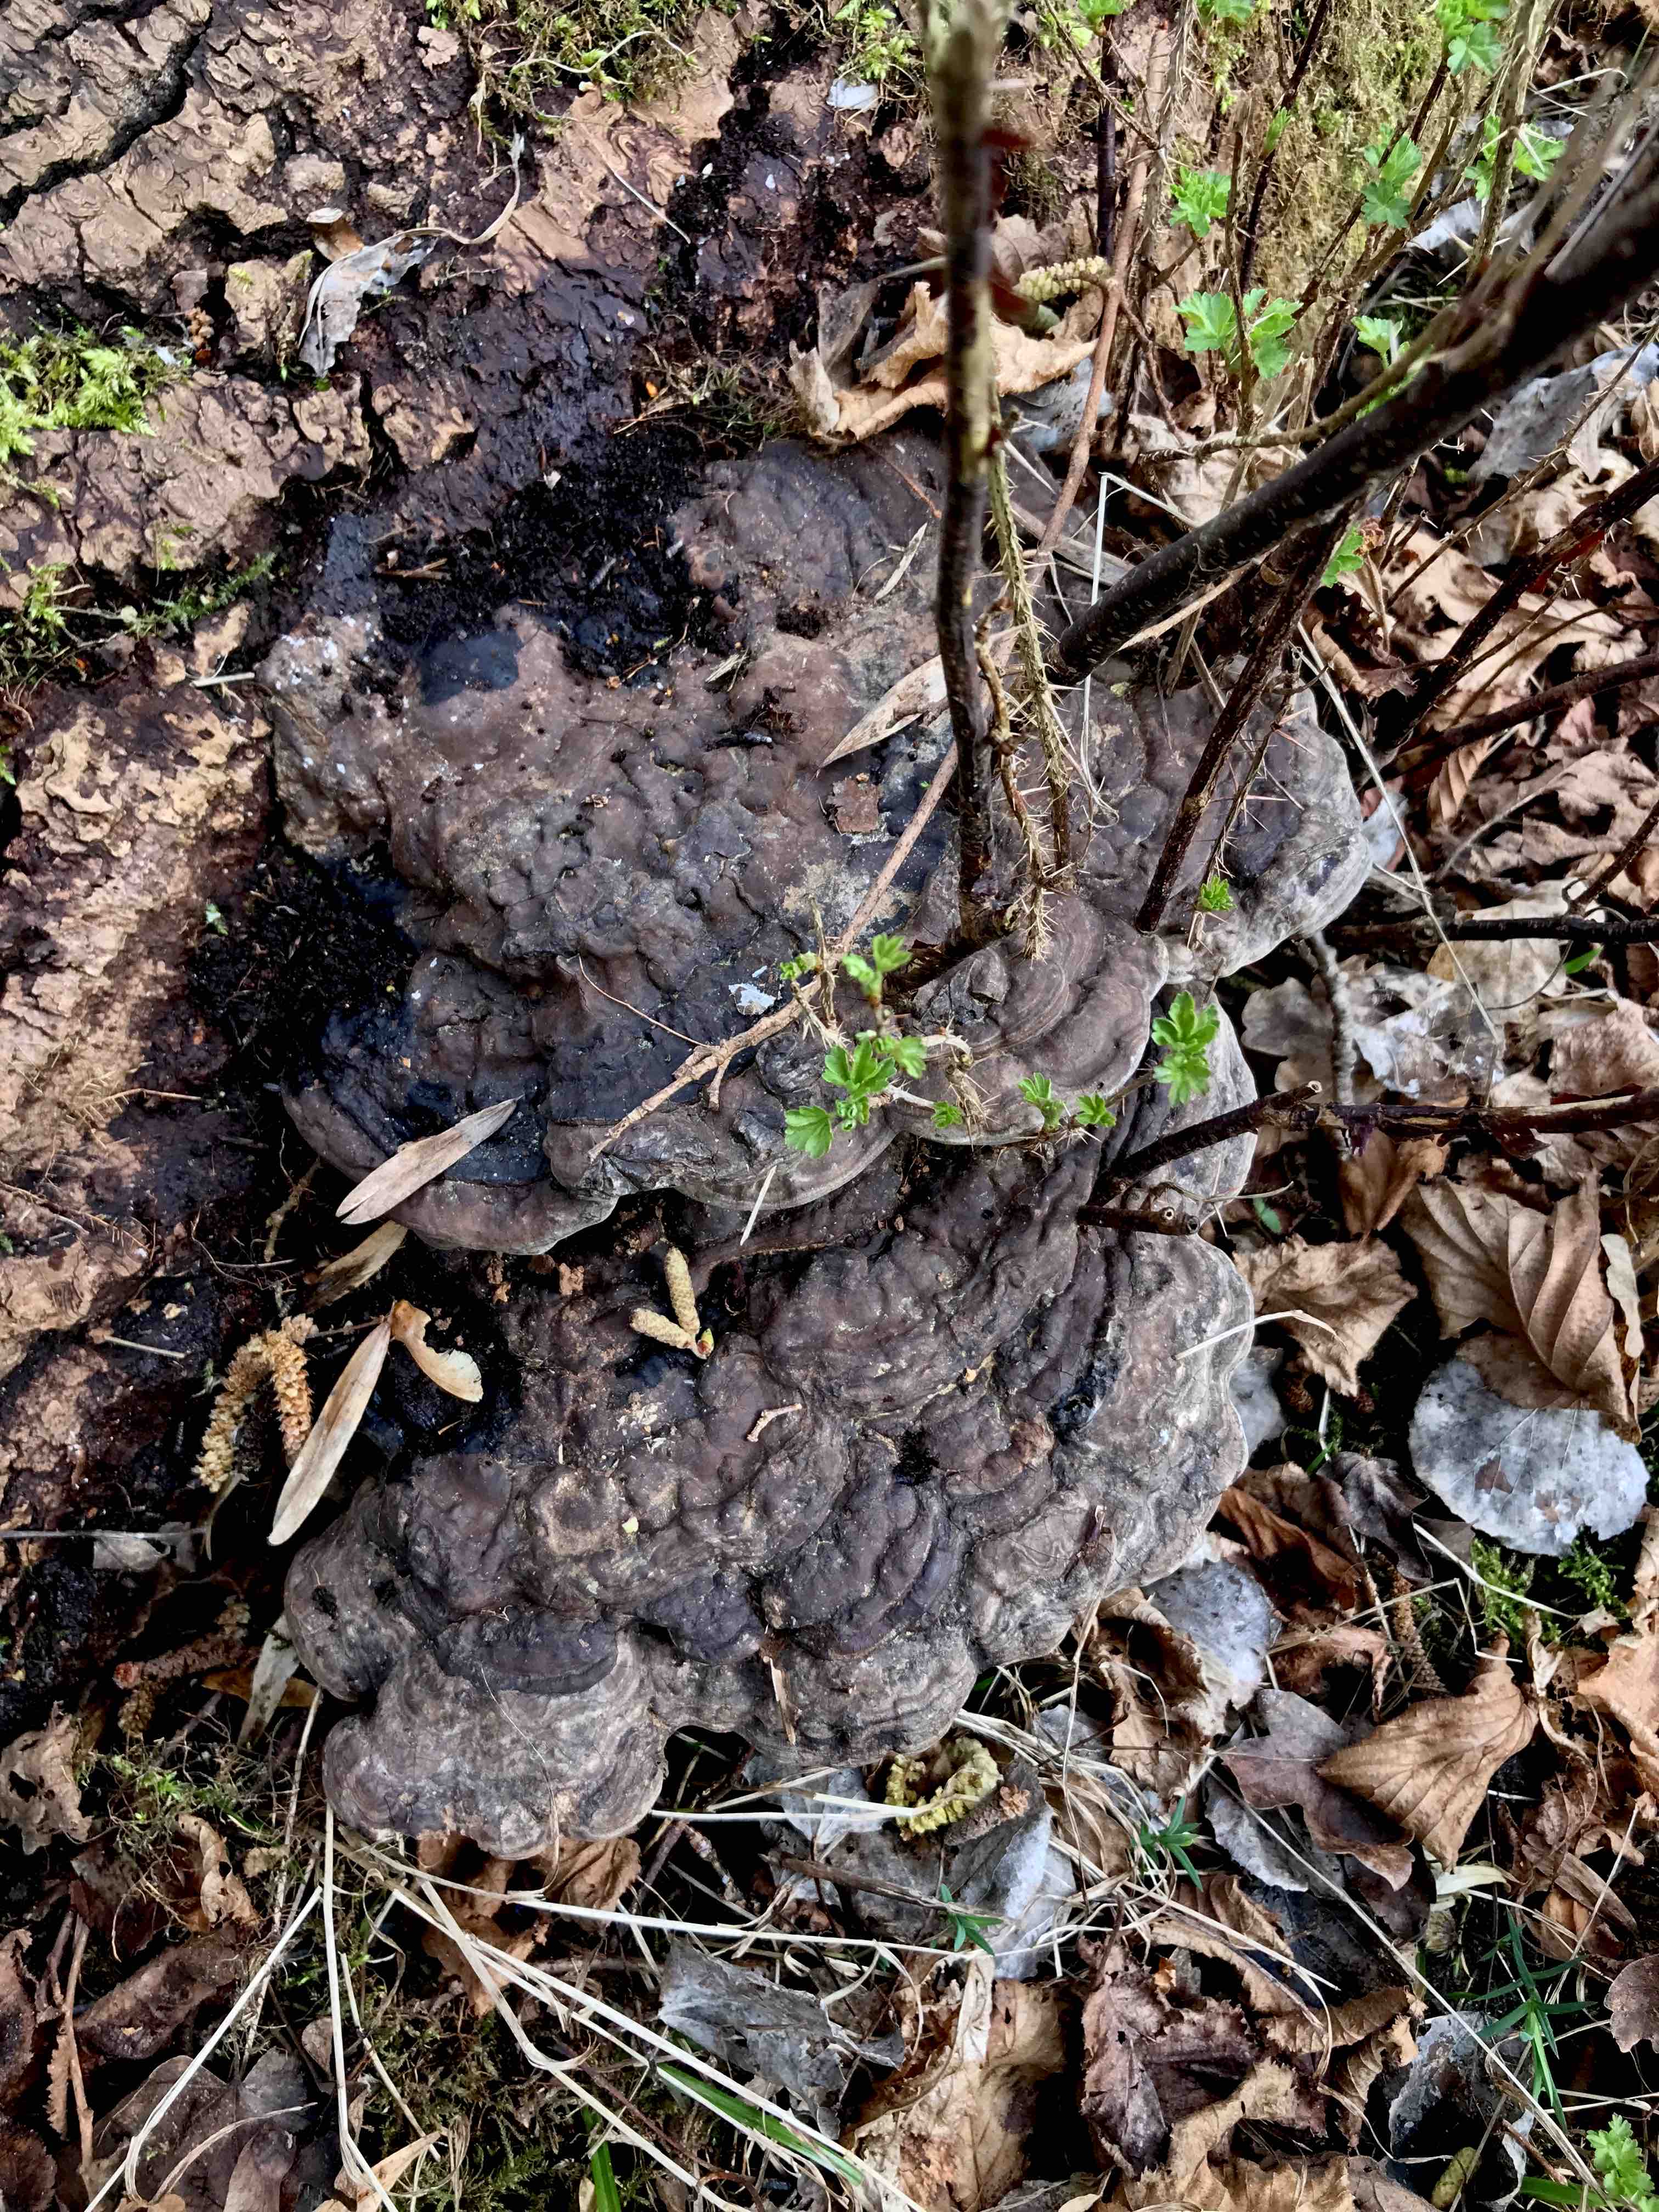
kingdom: Fungi
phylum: Basidiomycota
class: Agaricomycetes
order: Polyporales
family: Polyporaceae
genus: Ganoderma
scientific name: Ganoderma
